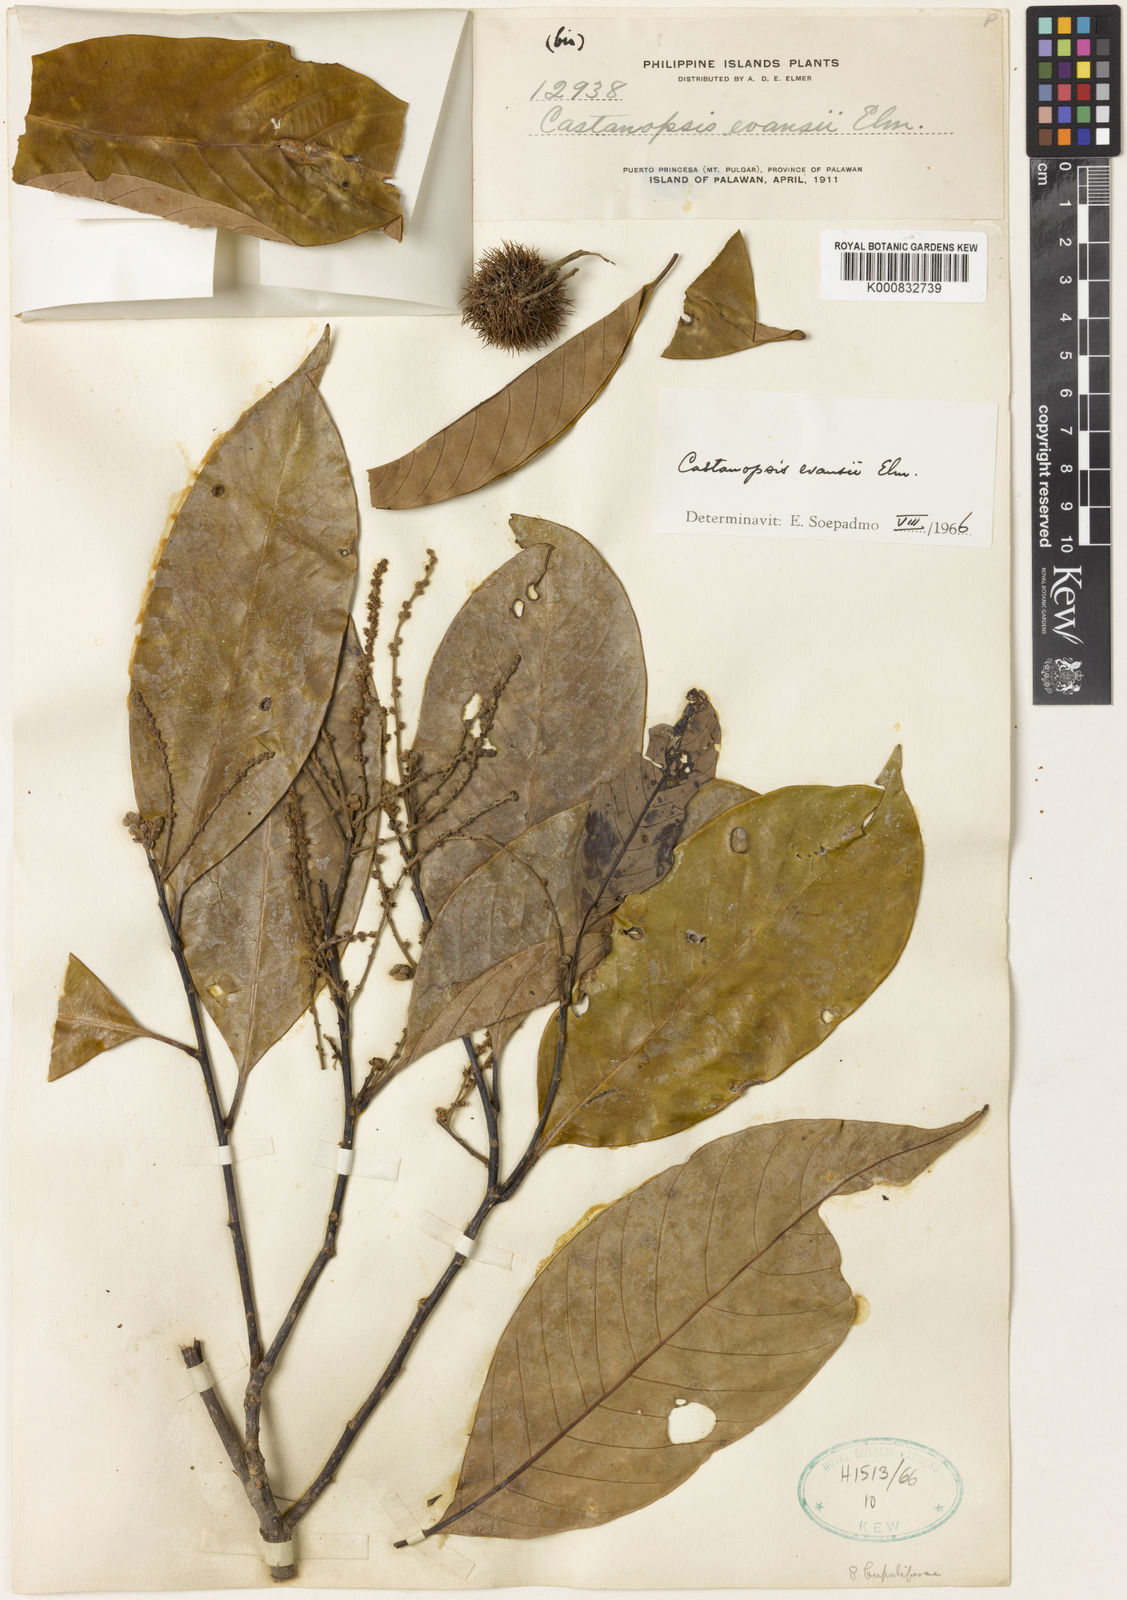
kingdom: Plantae
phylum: Tracheophyta
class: Magnoliopsida
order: Fagales
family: Fagaceae
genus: Castanopsis
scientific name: Castanopsis evansii
